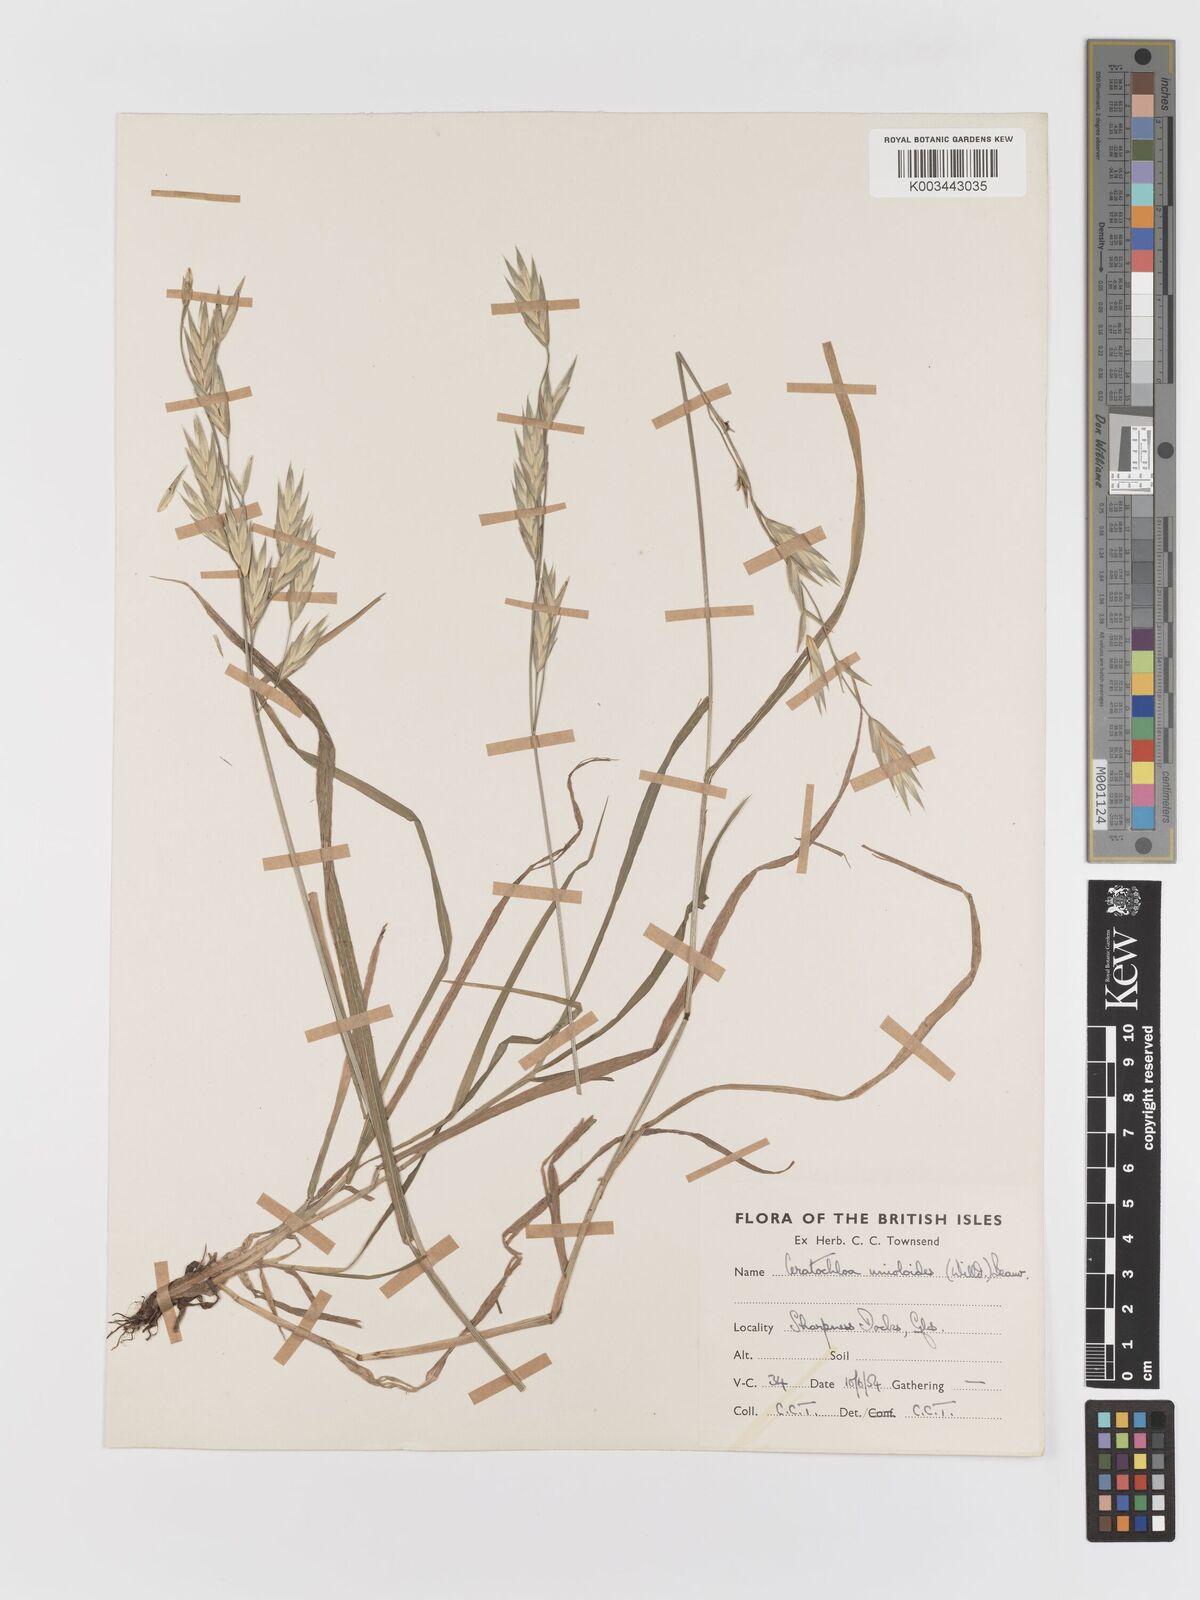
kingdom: Plantae
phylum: Tracheophyta
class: Liliopsida
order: Poales
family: Poaceae
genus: Bromus
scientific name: Bromus catharticus
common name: Rescuegrass
